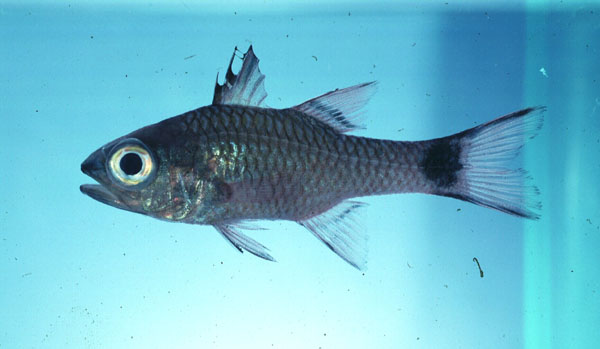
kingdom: Animalia
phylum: Chordata
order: Perciformes
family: Apogonidae
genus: Pristiapogon
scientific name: Pristiapogon taeniopterus
